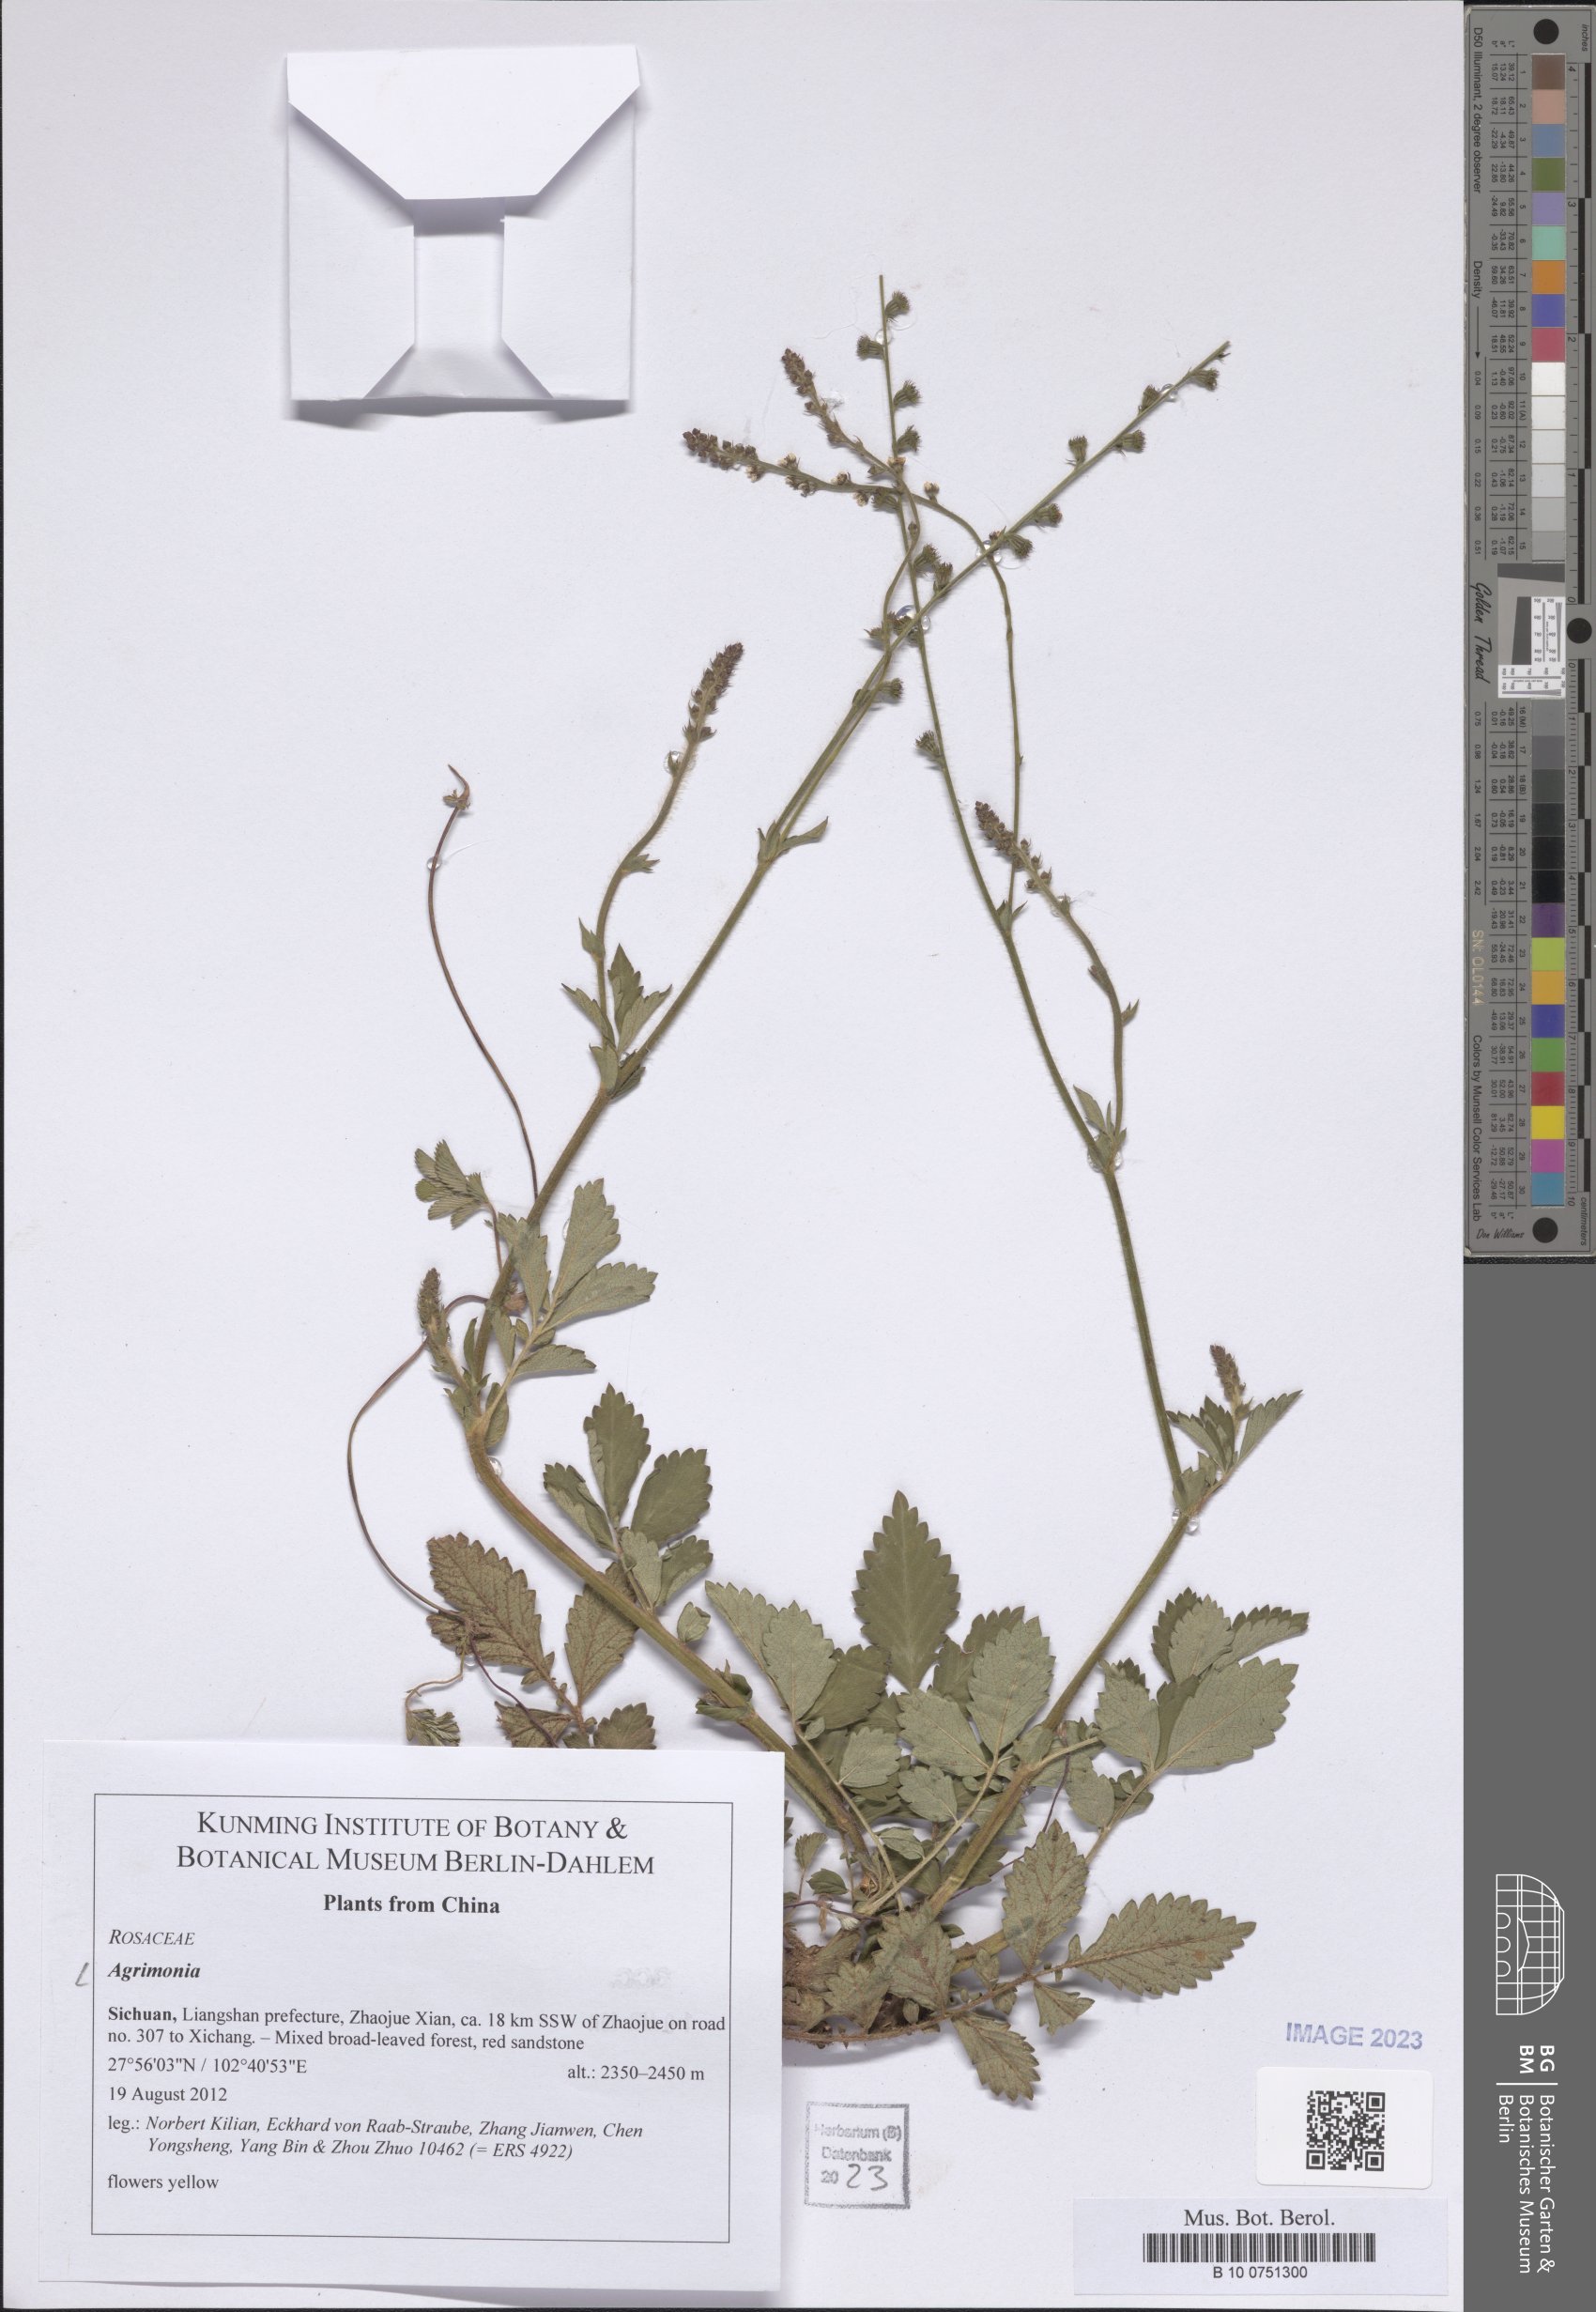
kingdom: Plantae
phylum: Tracheophyta
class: Magnoliopsida
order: Rosales
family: Rosaceae
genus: Agrimonia
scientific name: Agrimonia
